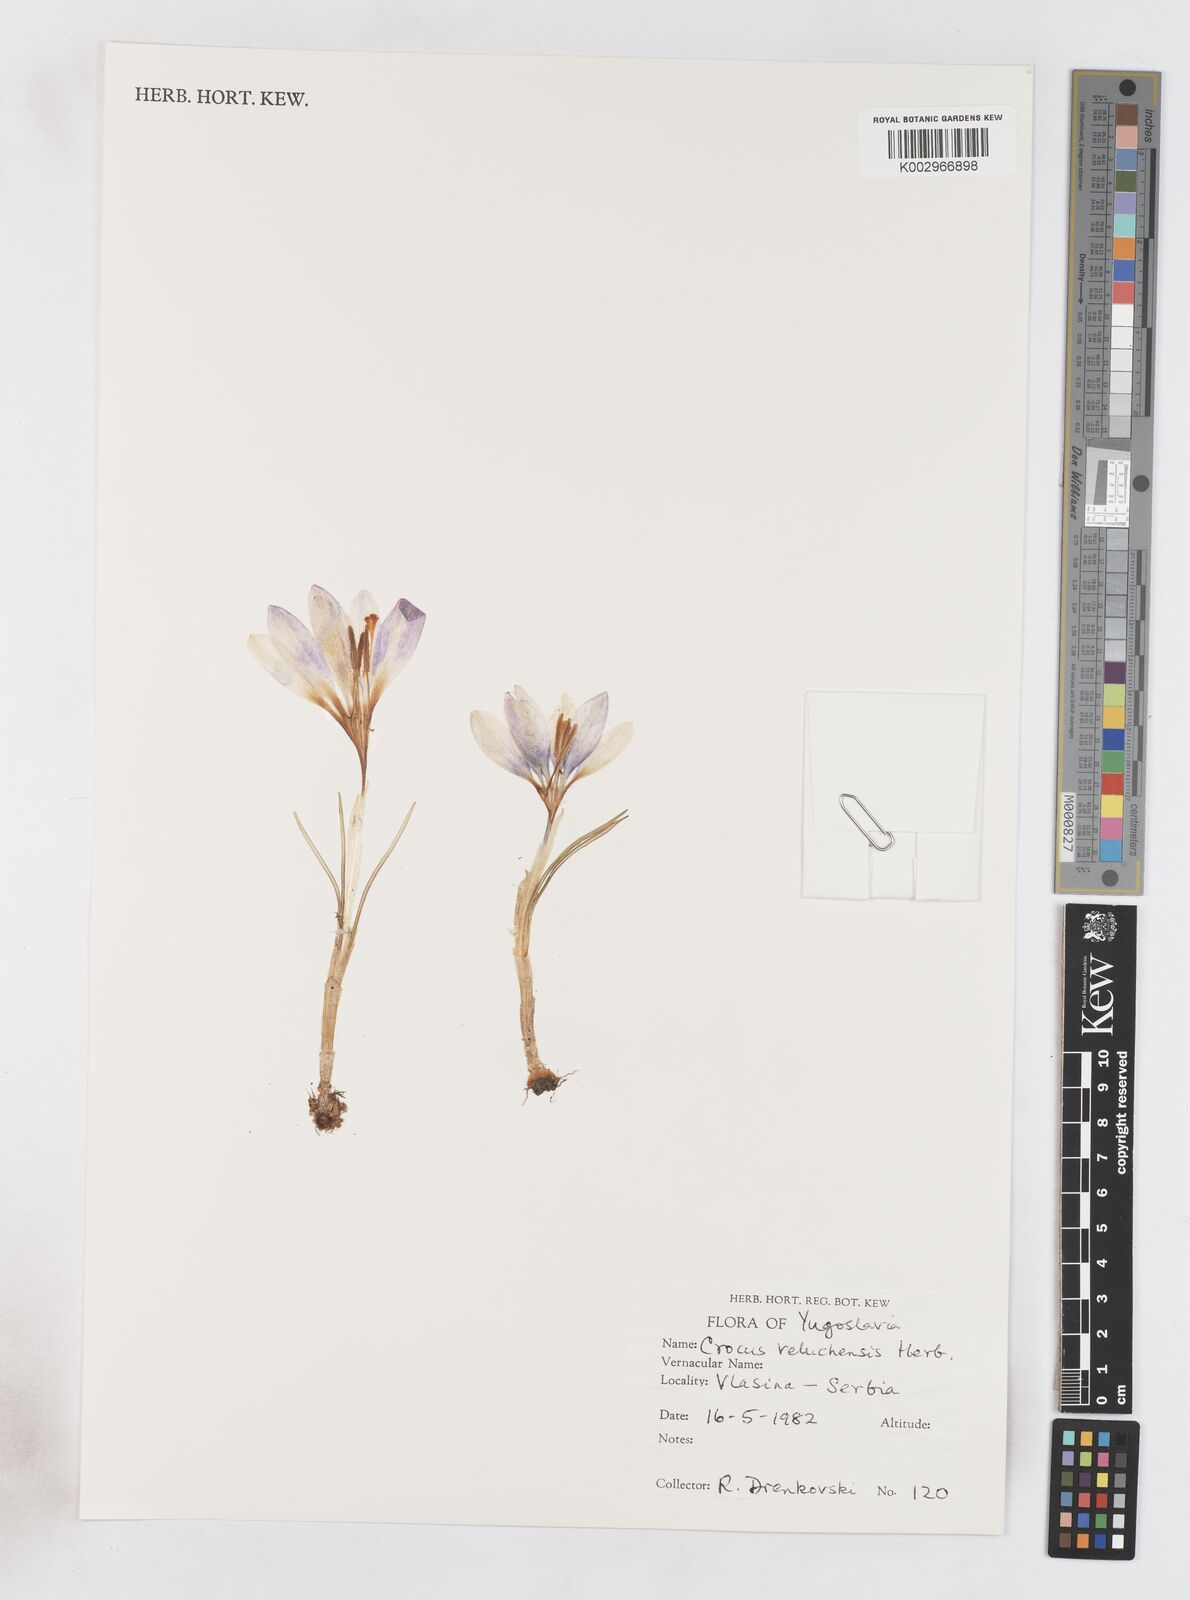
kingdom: Plantae
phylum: Tracheophyta
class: Liliopsida
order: Asparagales
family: Iridaceae
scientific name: Iridaceae
